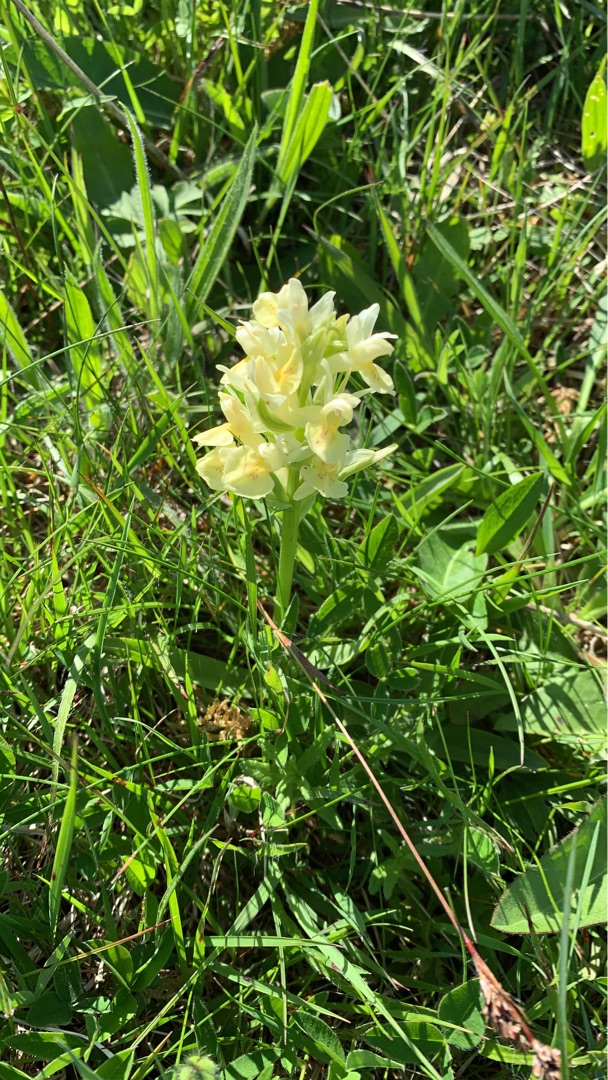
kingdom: Plantae
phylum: Tracheophyta
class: Liliopsida
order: Asparagales
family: Orchidaceae
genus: Dactylorhiza
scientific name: Dactylorhiza sambucina
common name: Hylde-gøgeurt
